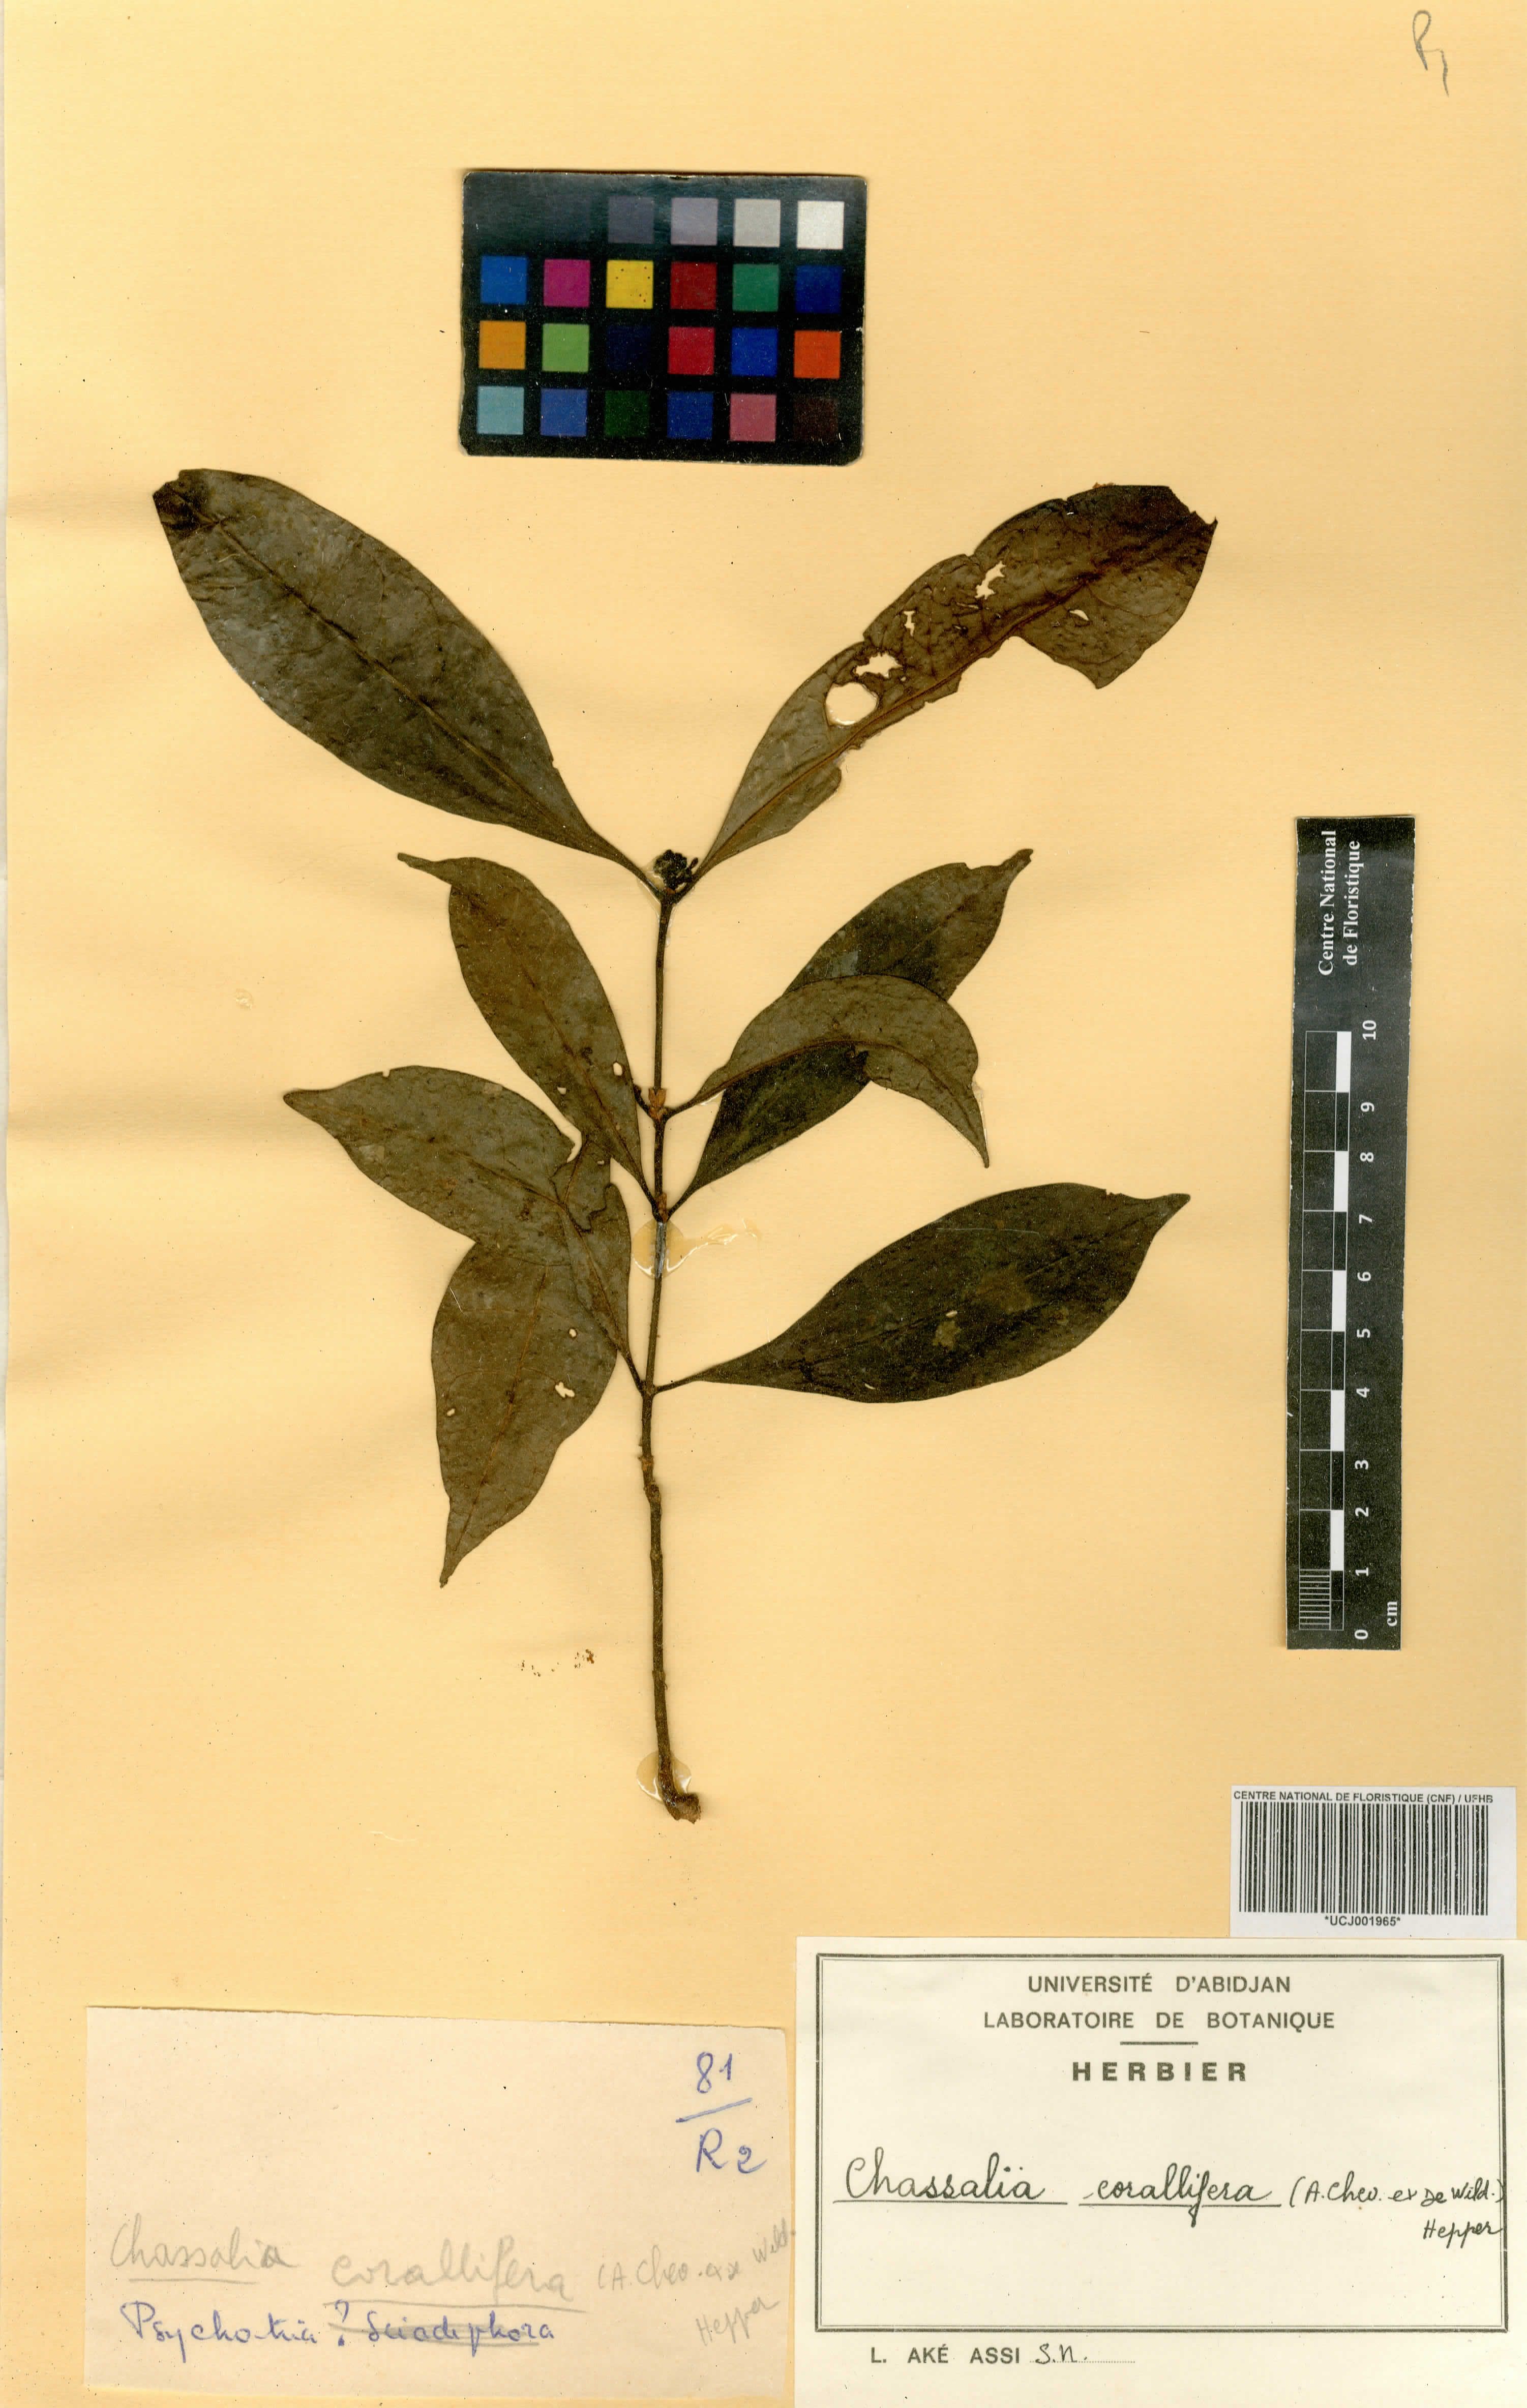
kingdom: Plantae
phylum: Tracheophyta
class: Magnoliopsida
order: Gentianales
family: Rubiaceae
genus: Chassalia
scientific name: Chassalia corallifera
